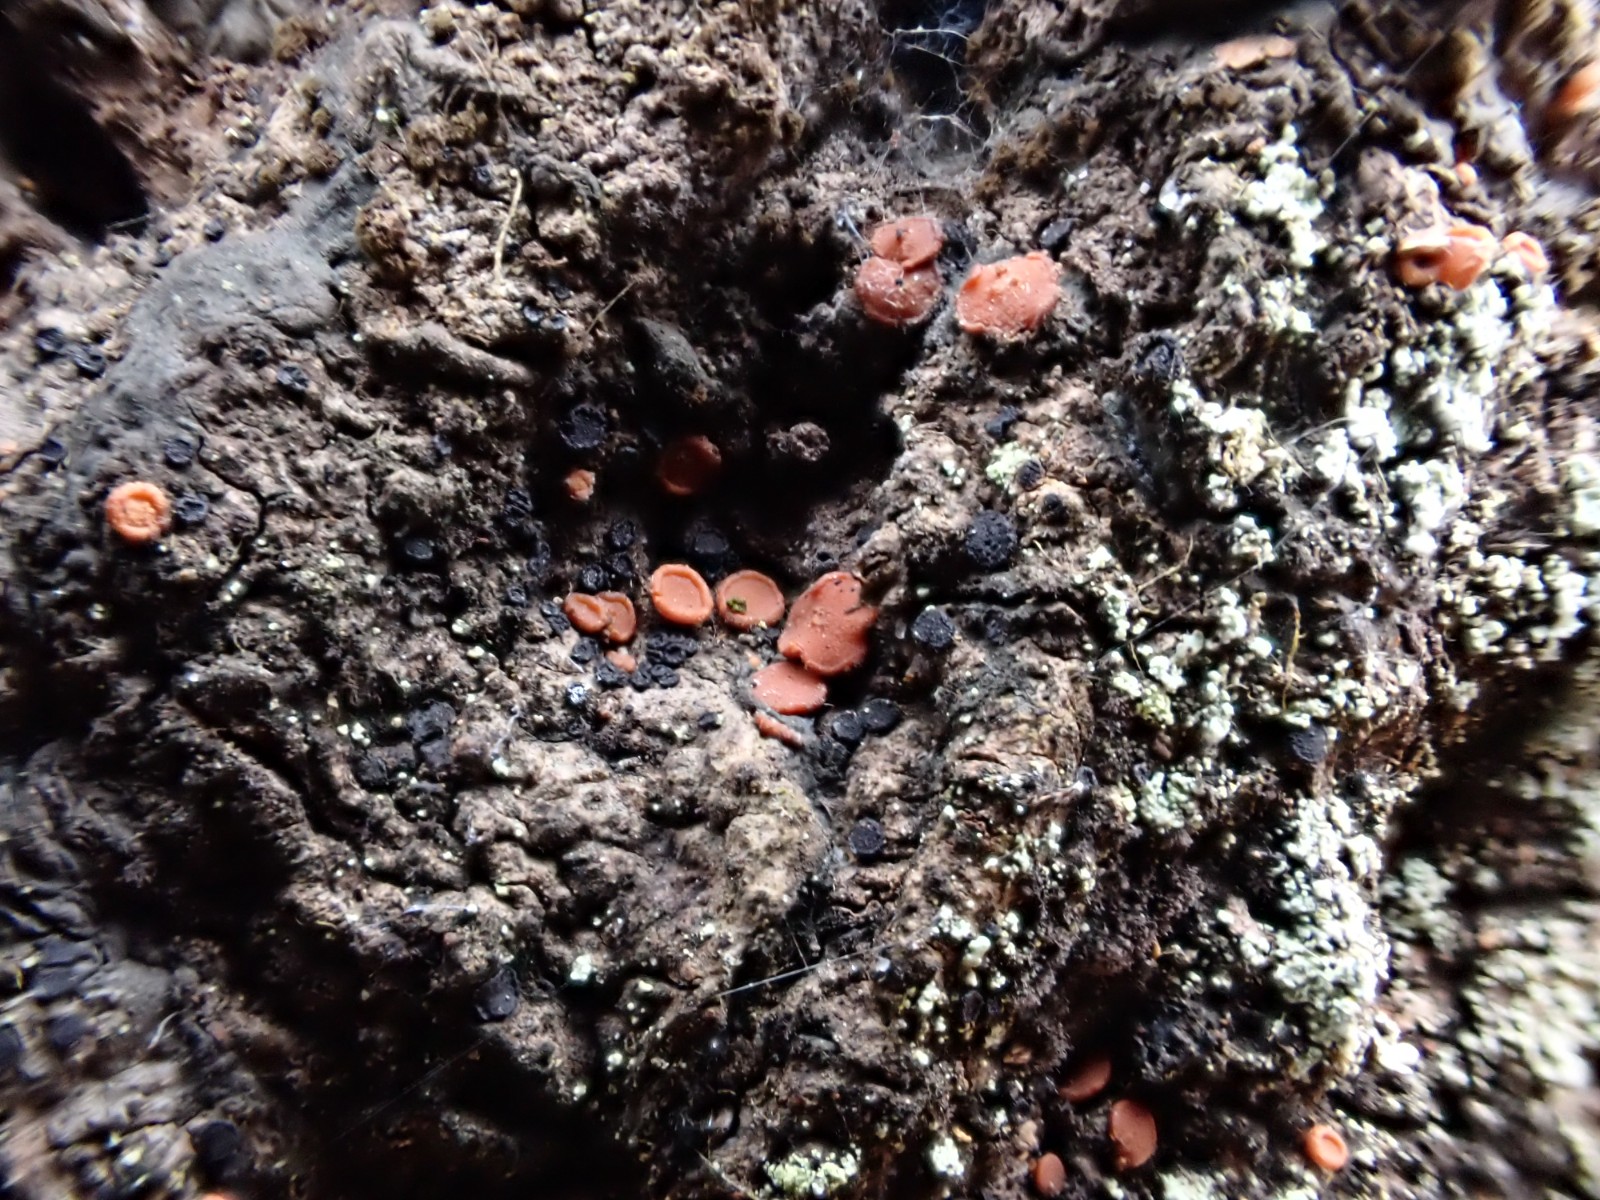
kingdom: Fungi
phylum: Ascomycota
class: Sareomycetes
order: Sareales
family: Sareaceae
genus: Sarea
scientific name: Sarea resinae
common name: orangegul harpiksskive
